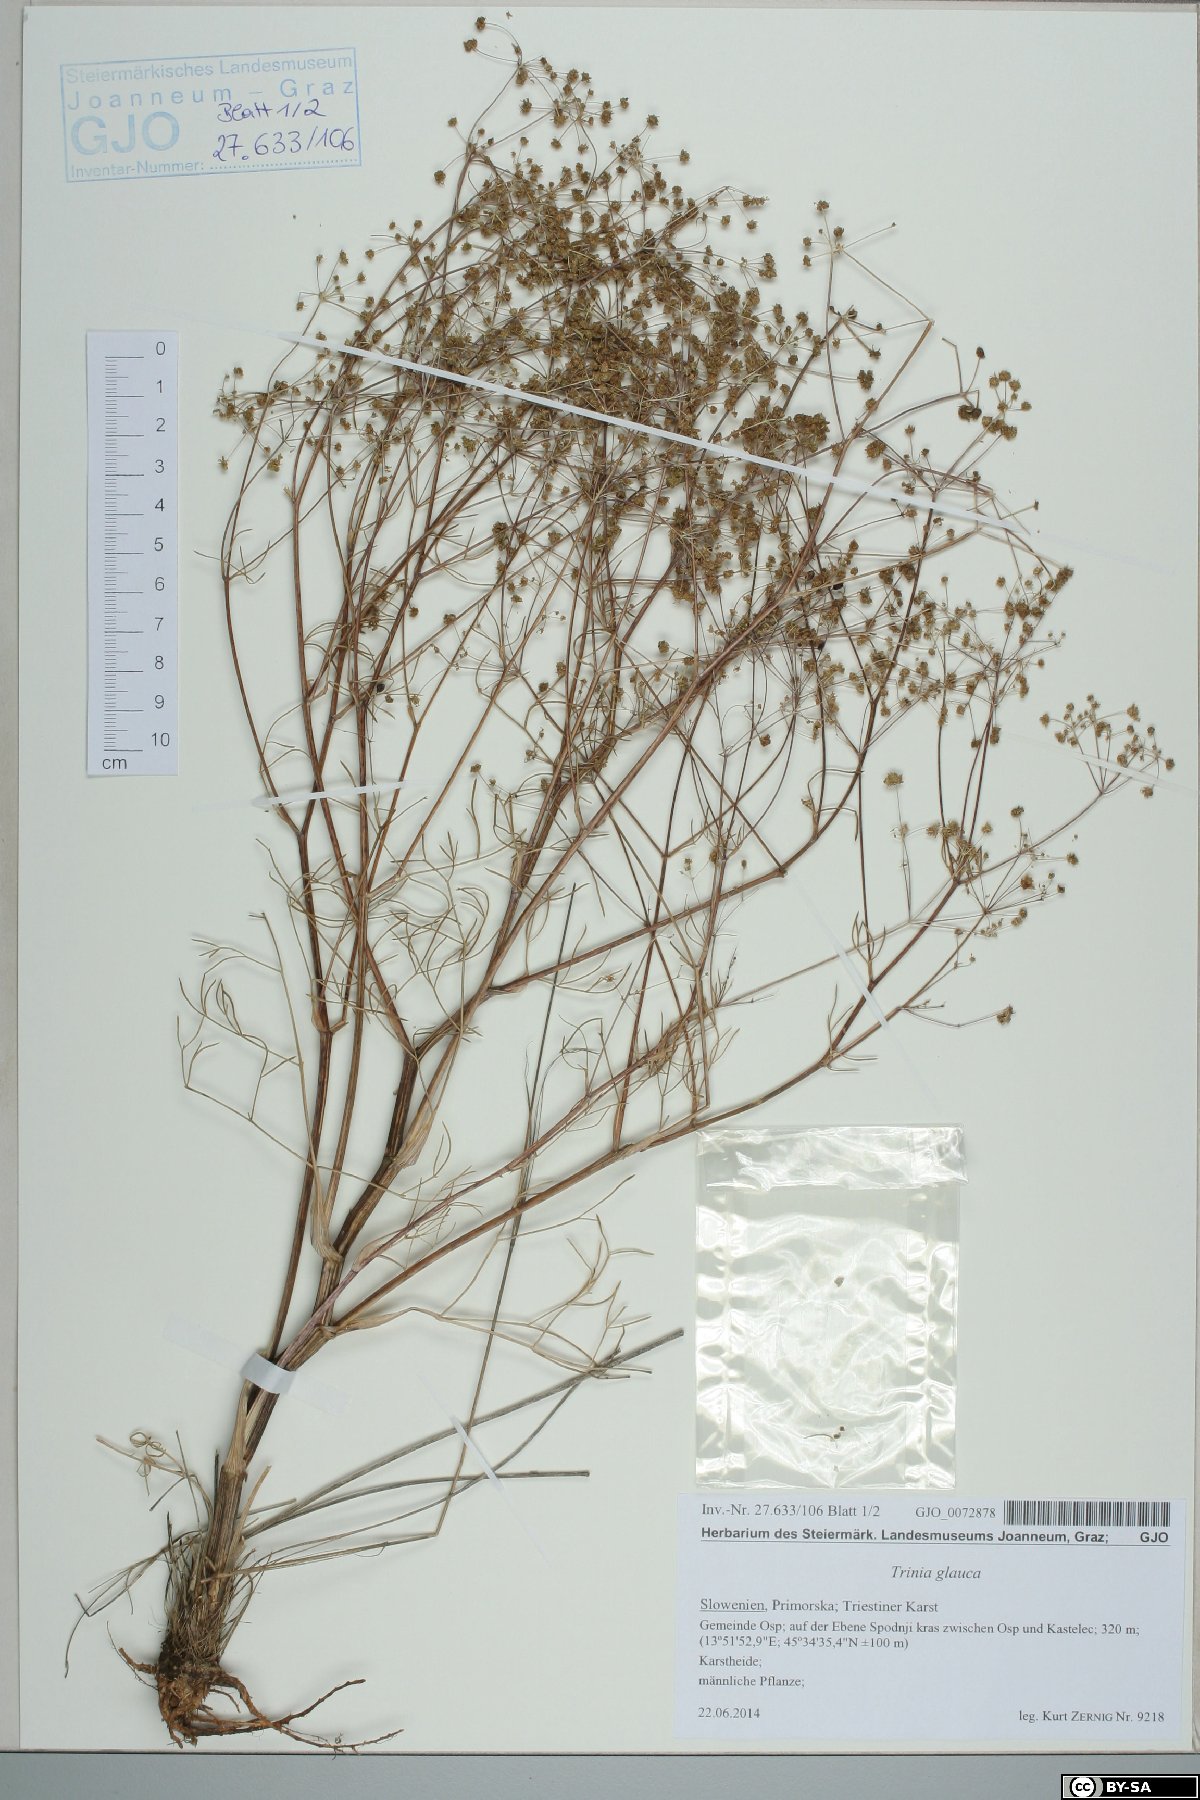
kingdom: Plantae
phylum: Tracheophyta
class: Magnoliopsida
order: Apiales
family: Apiaceae
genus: Trinia
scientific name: Trinia glauca
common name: Honewort
